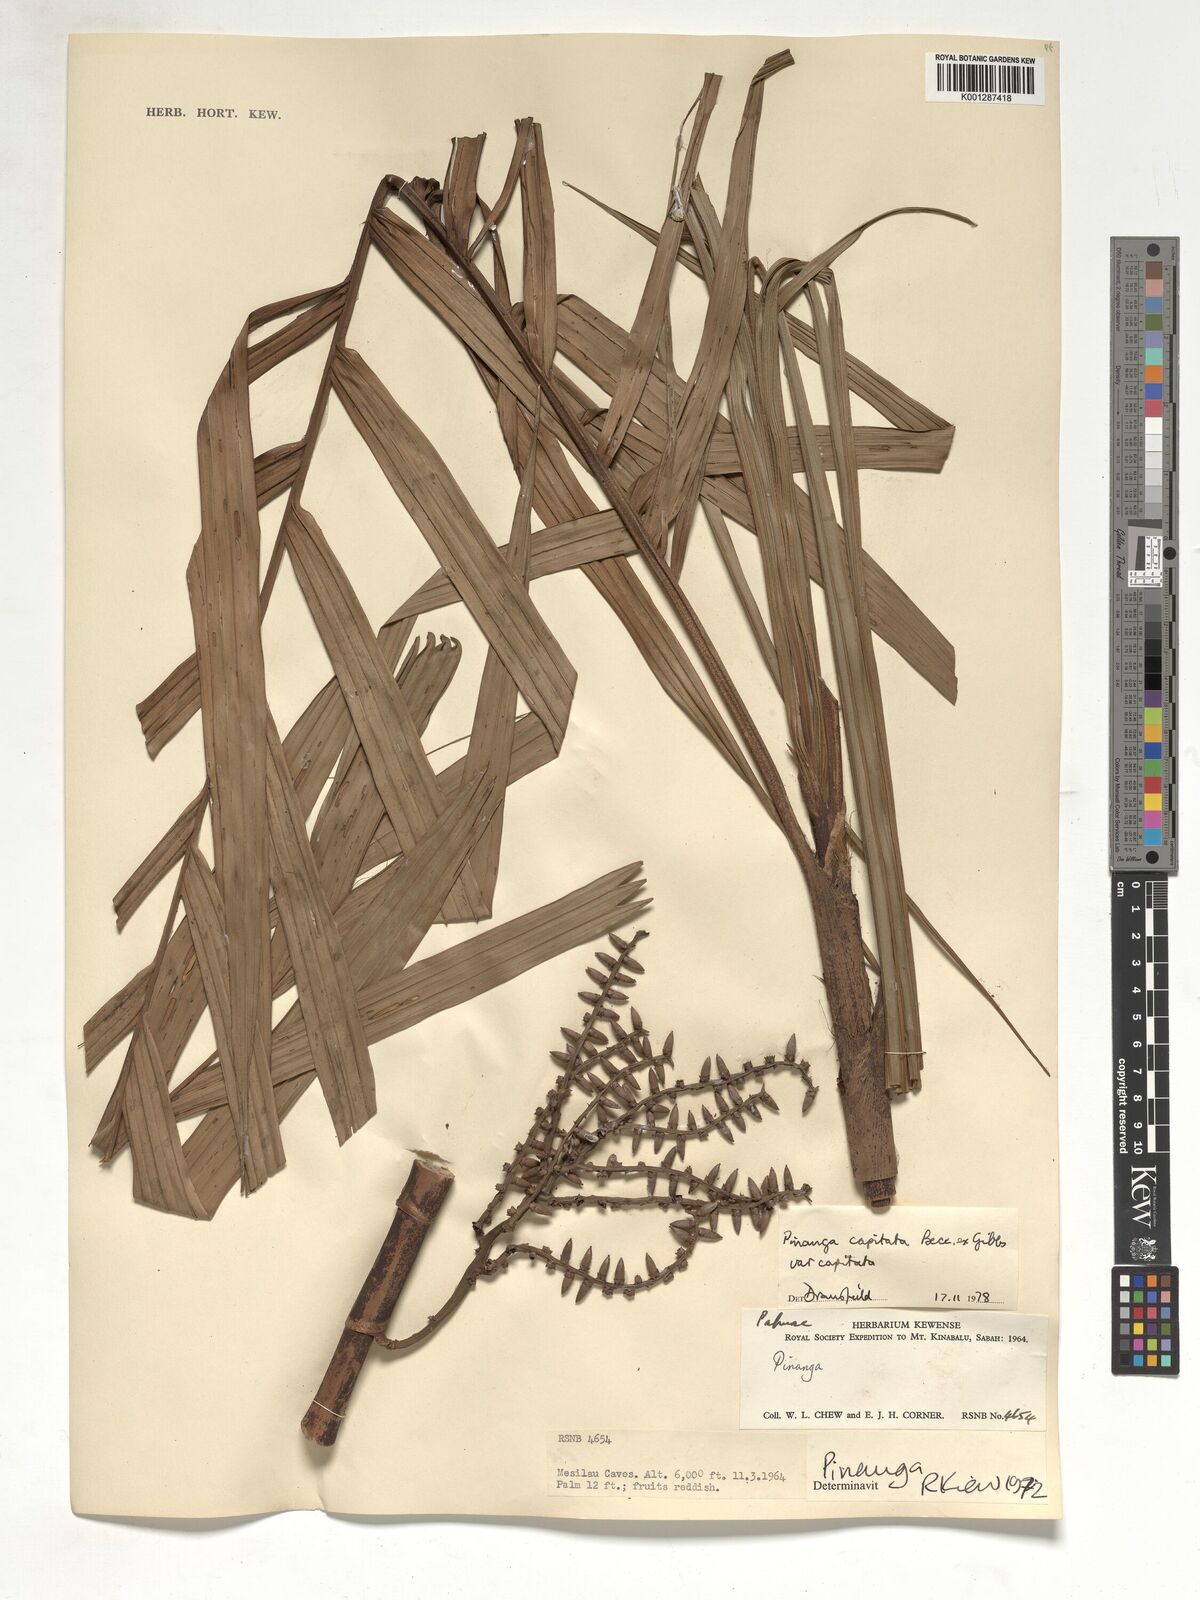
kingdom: Plantae
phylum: Tracheophyta
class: Liliopsida
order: Arecales
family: Arecaceae
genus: Pinanga
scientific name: Pinanga capitata
